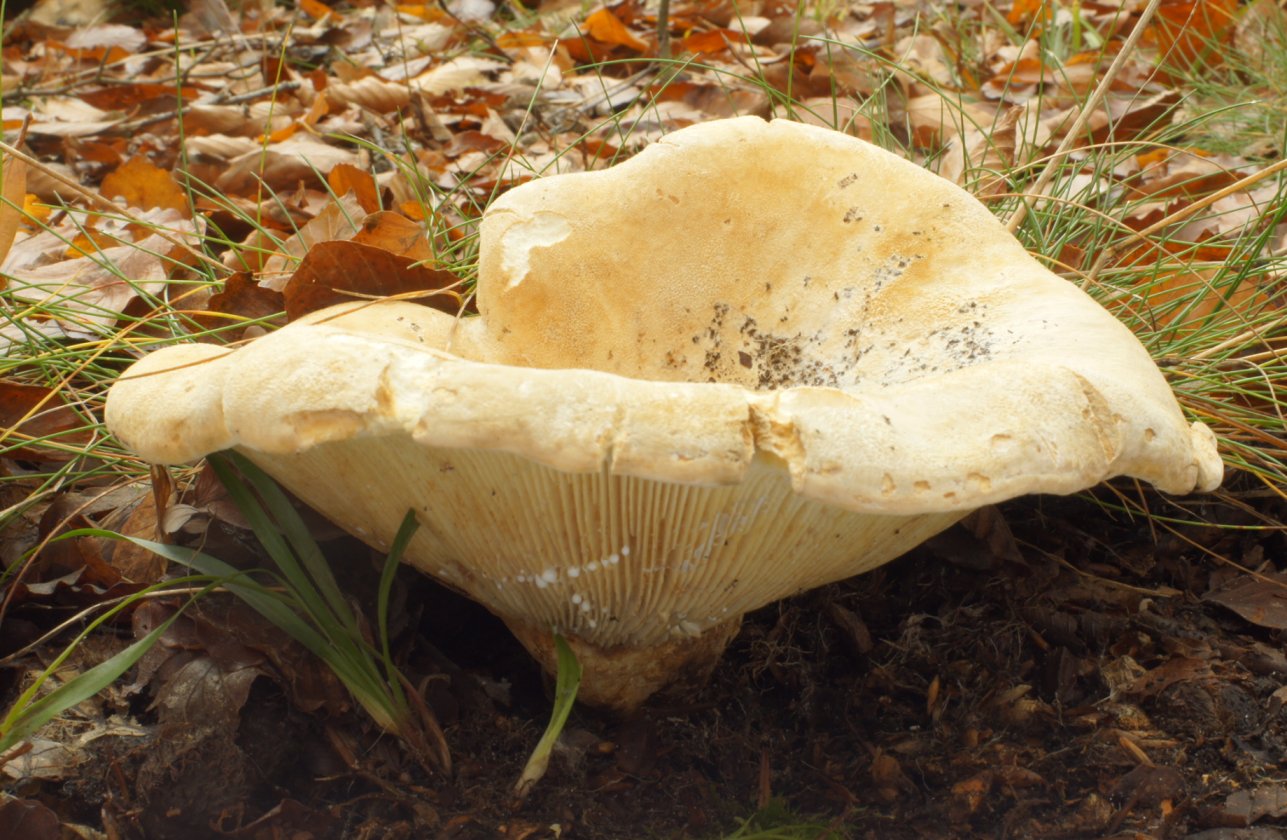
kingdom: Fungi
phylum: Basidiomycota
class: Agaricomycetes
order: Russulales
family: Russulaceae
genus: Lactifluus
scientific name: Lactifluus vellereus
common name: hvidfiltet mælkehat
